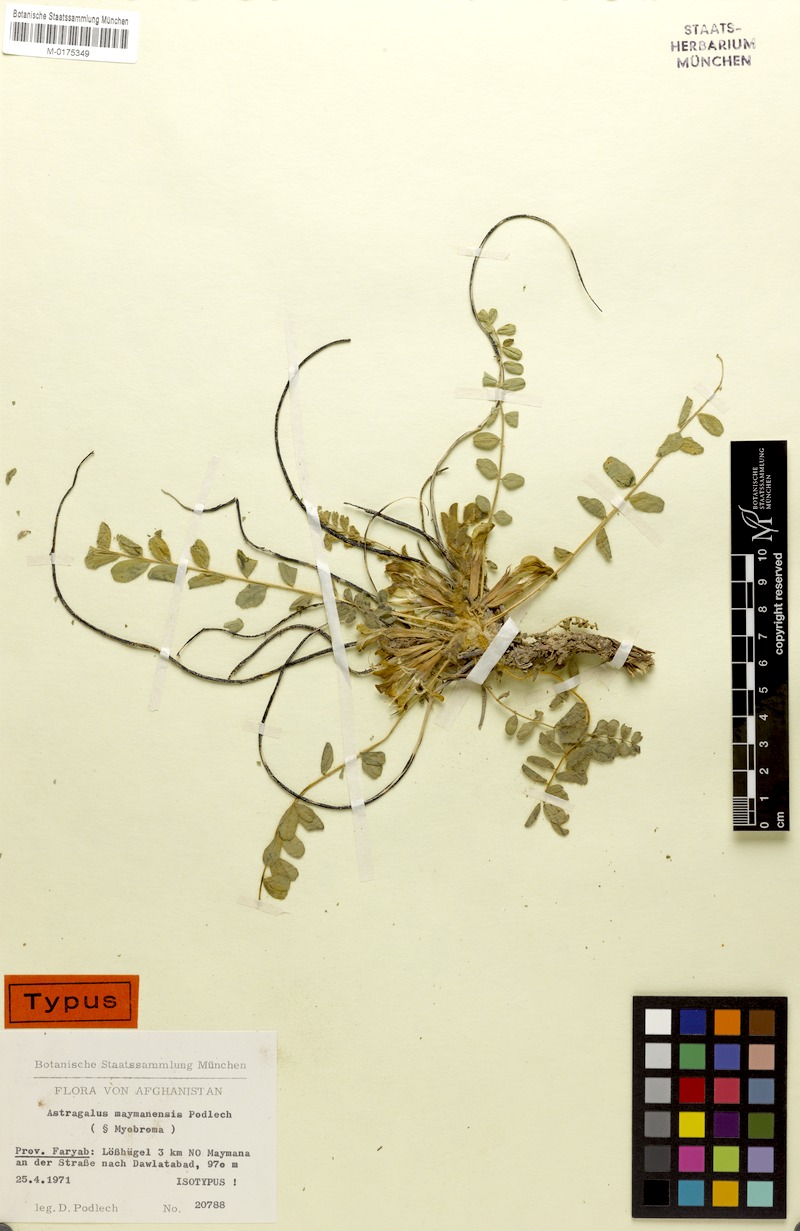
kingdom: Plantae
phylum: Tracheophyta
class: Magnoliopsida
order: Fabales
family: Fabaceae
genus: Astragalus
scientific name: Astragalus nephtonensis
